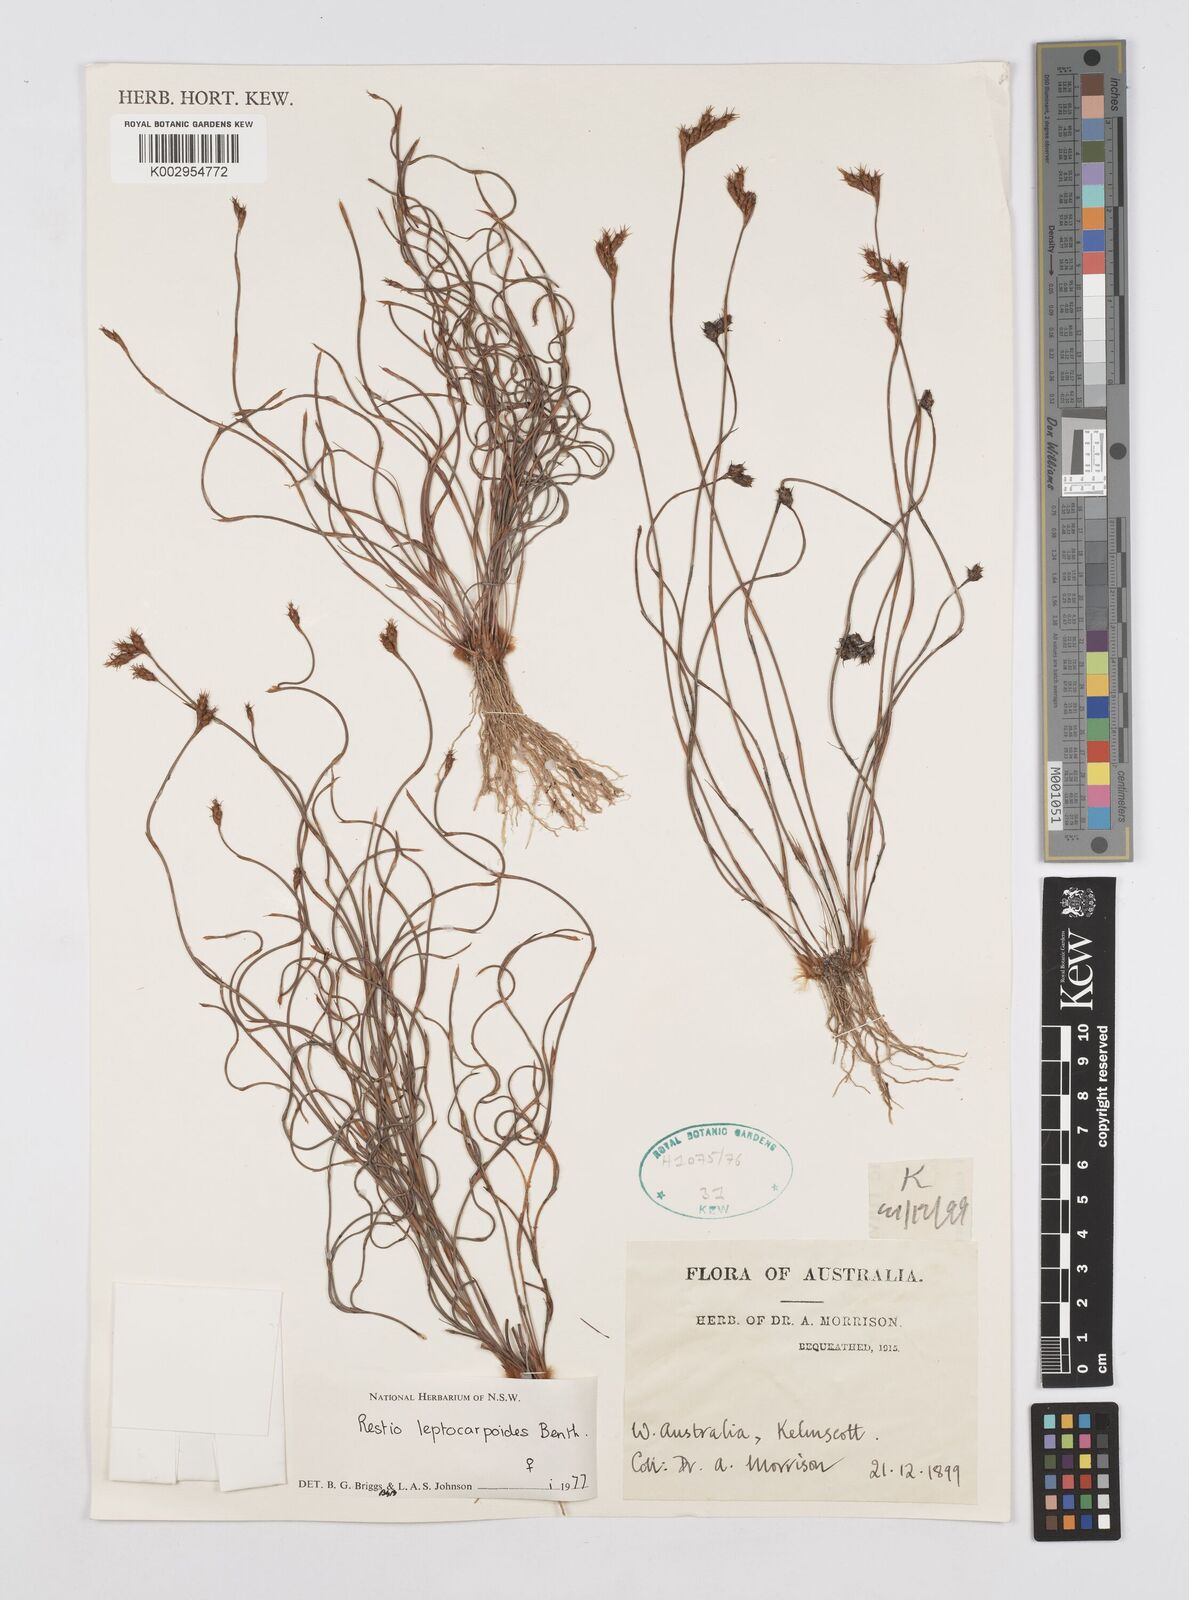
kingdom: Plantae
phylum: Tracheophyta
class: Liliopsida
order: Poales
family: Restionaceae
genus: Cytogonidium
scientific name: Cytogonidium leptocarpoides
